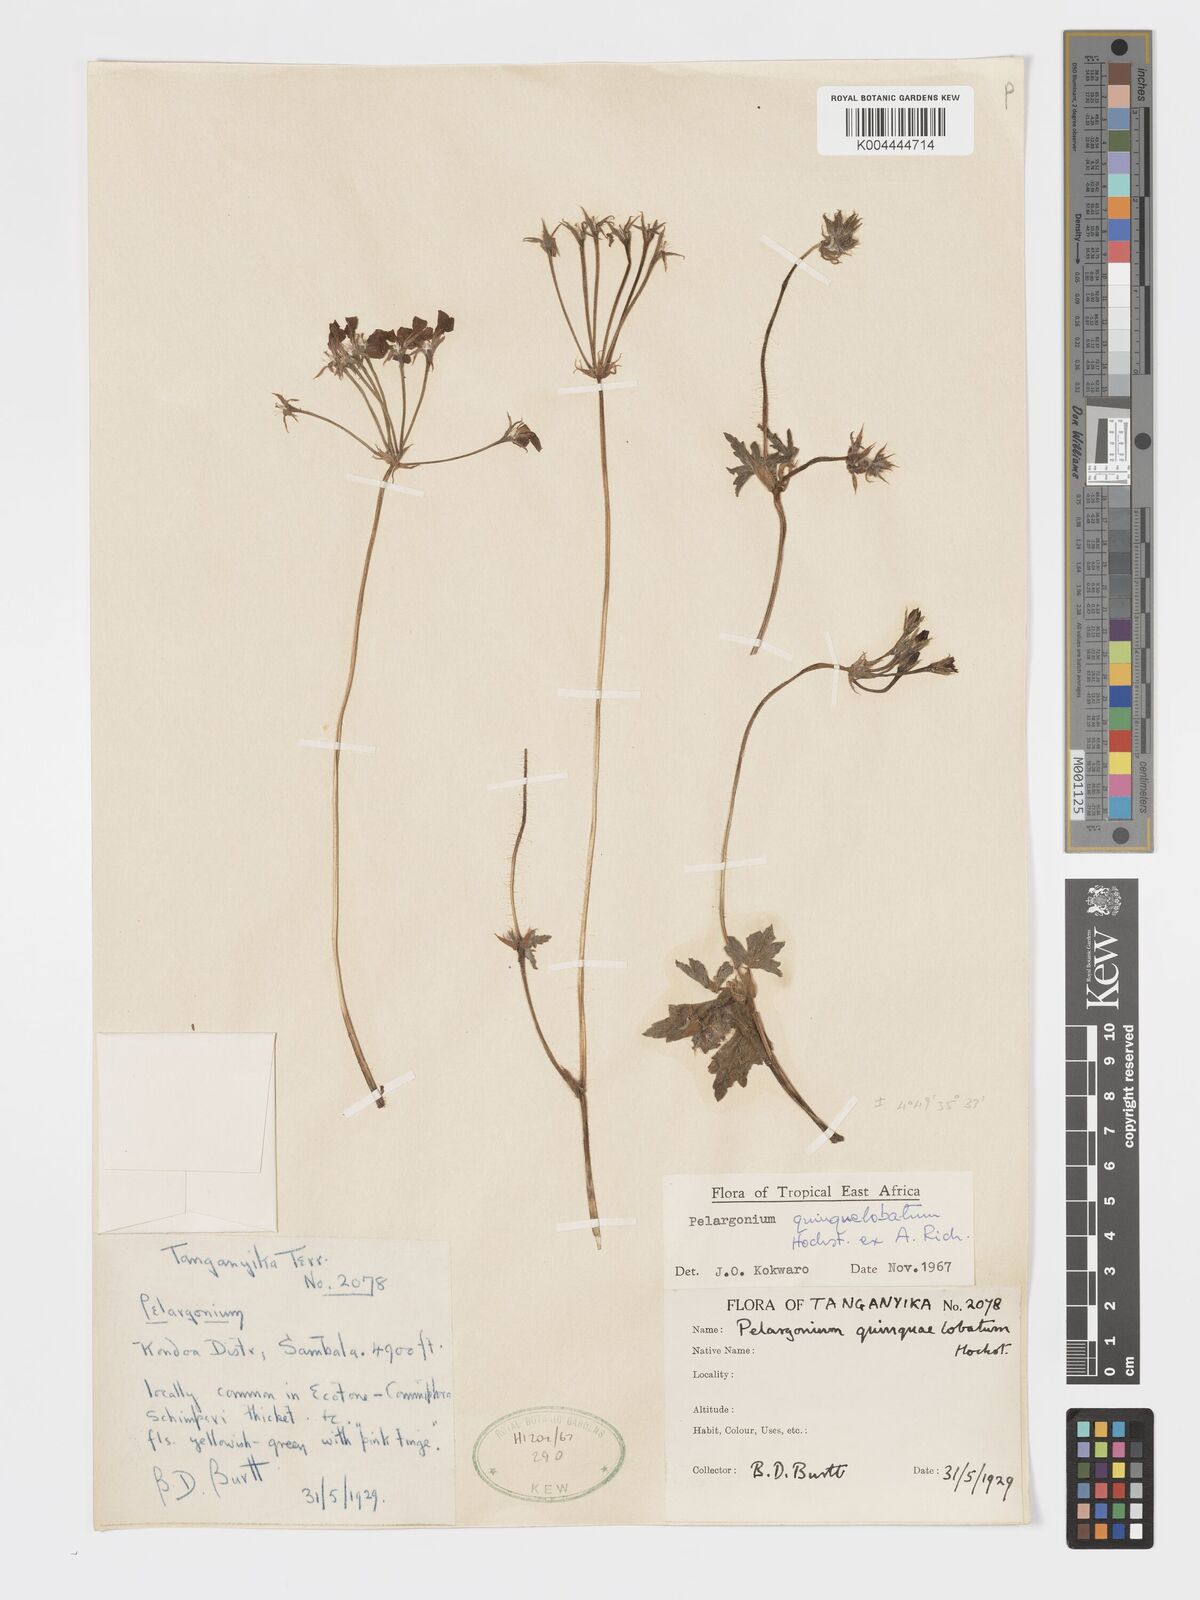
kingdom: Plantae
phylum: Tracheophyta
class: Magnoliopsida
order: Geraniales
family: Geraniaceae
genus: Pelargonium
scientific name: Pelargonium quinquelobatum
